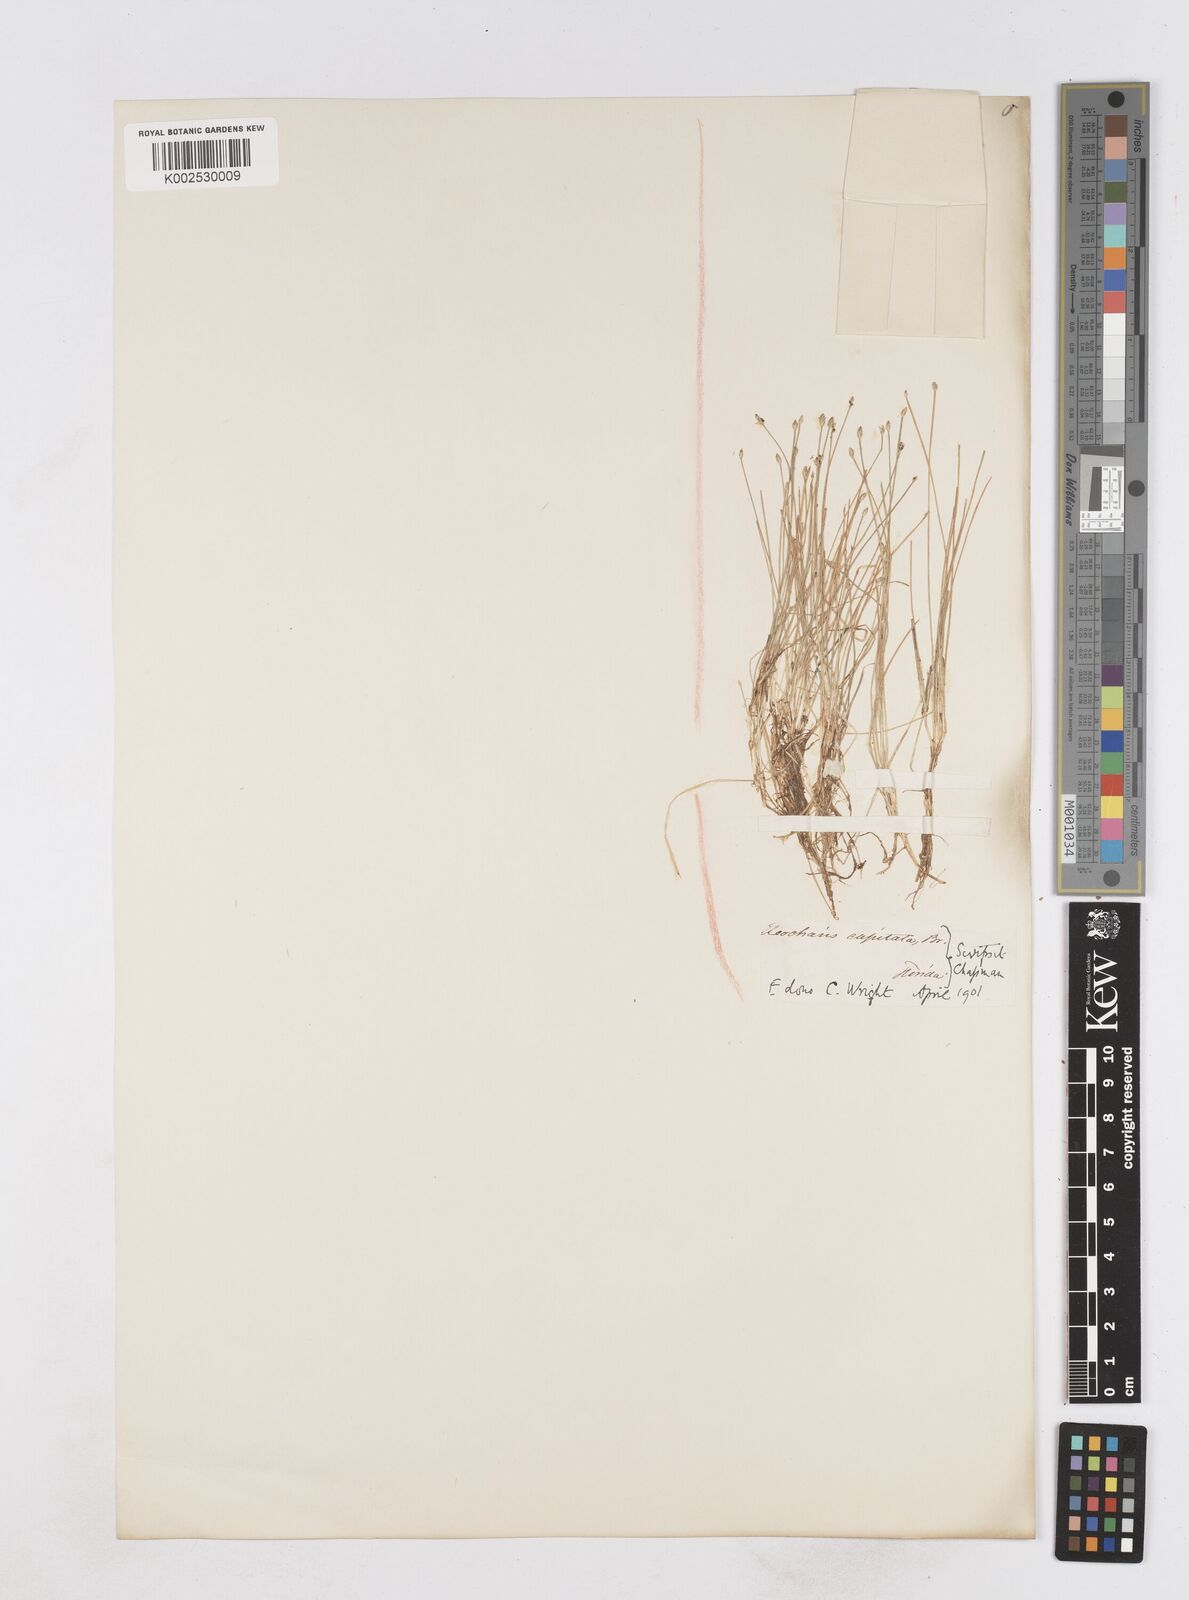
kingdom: Plantae
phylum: Tracheophyta
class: Liliopsida
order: Poales
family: Cyperaceae
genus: Eleocharis
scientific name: Eleocharis geniculata
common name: Canada spikesedge
